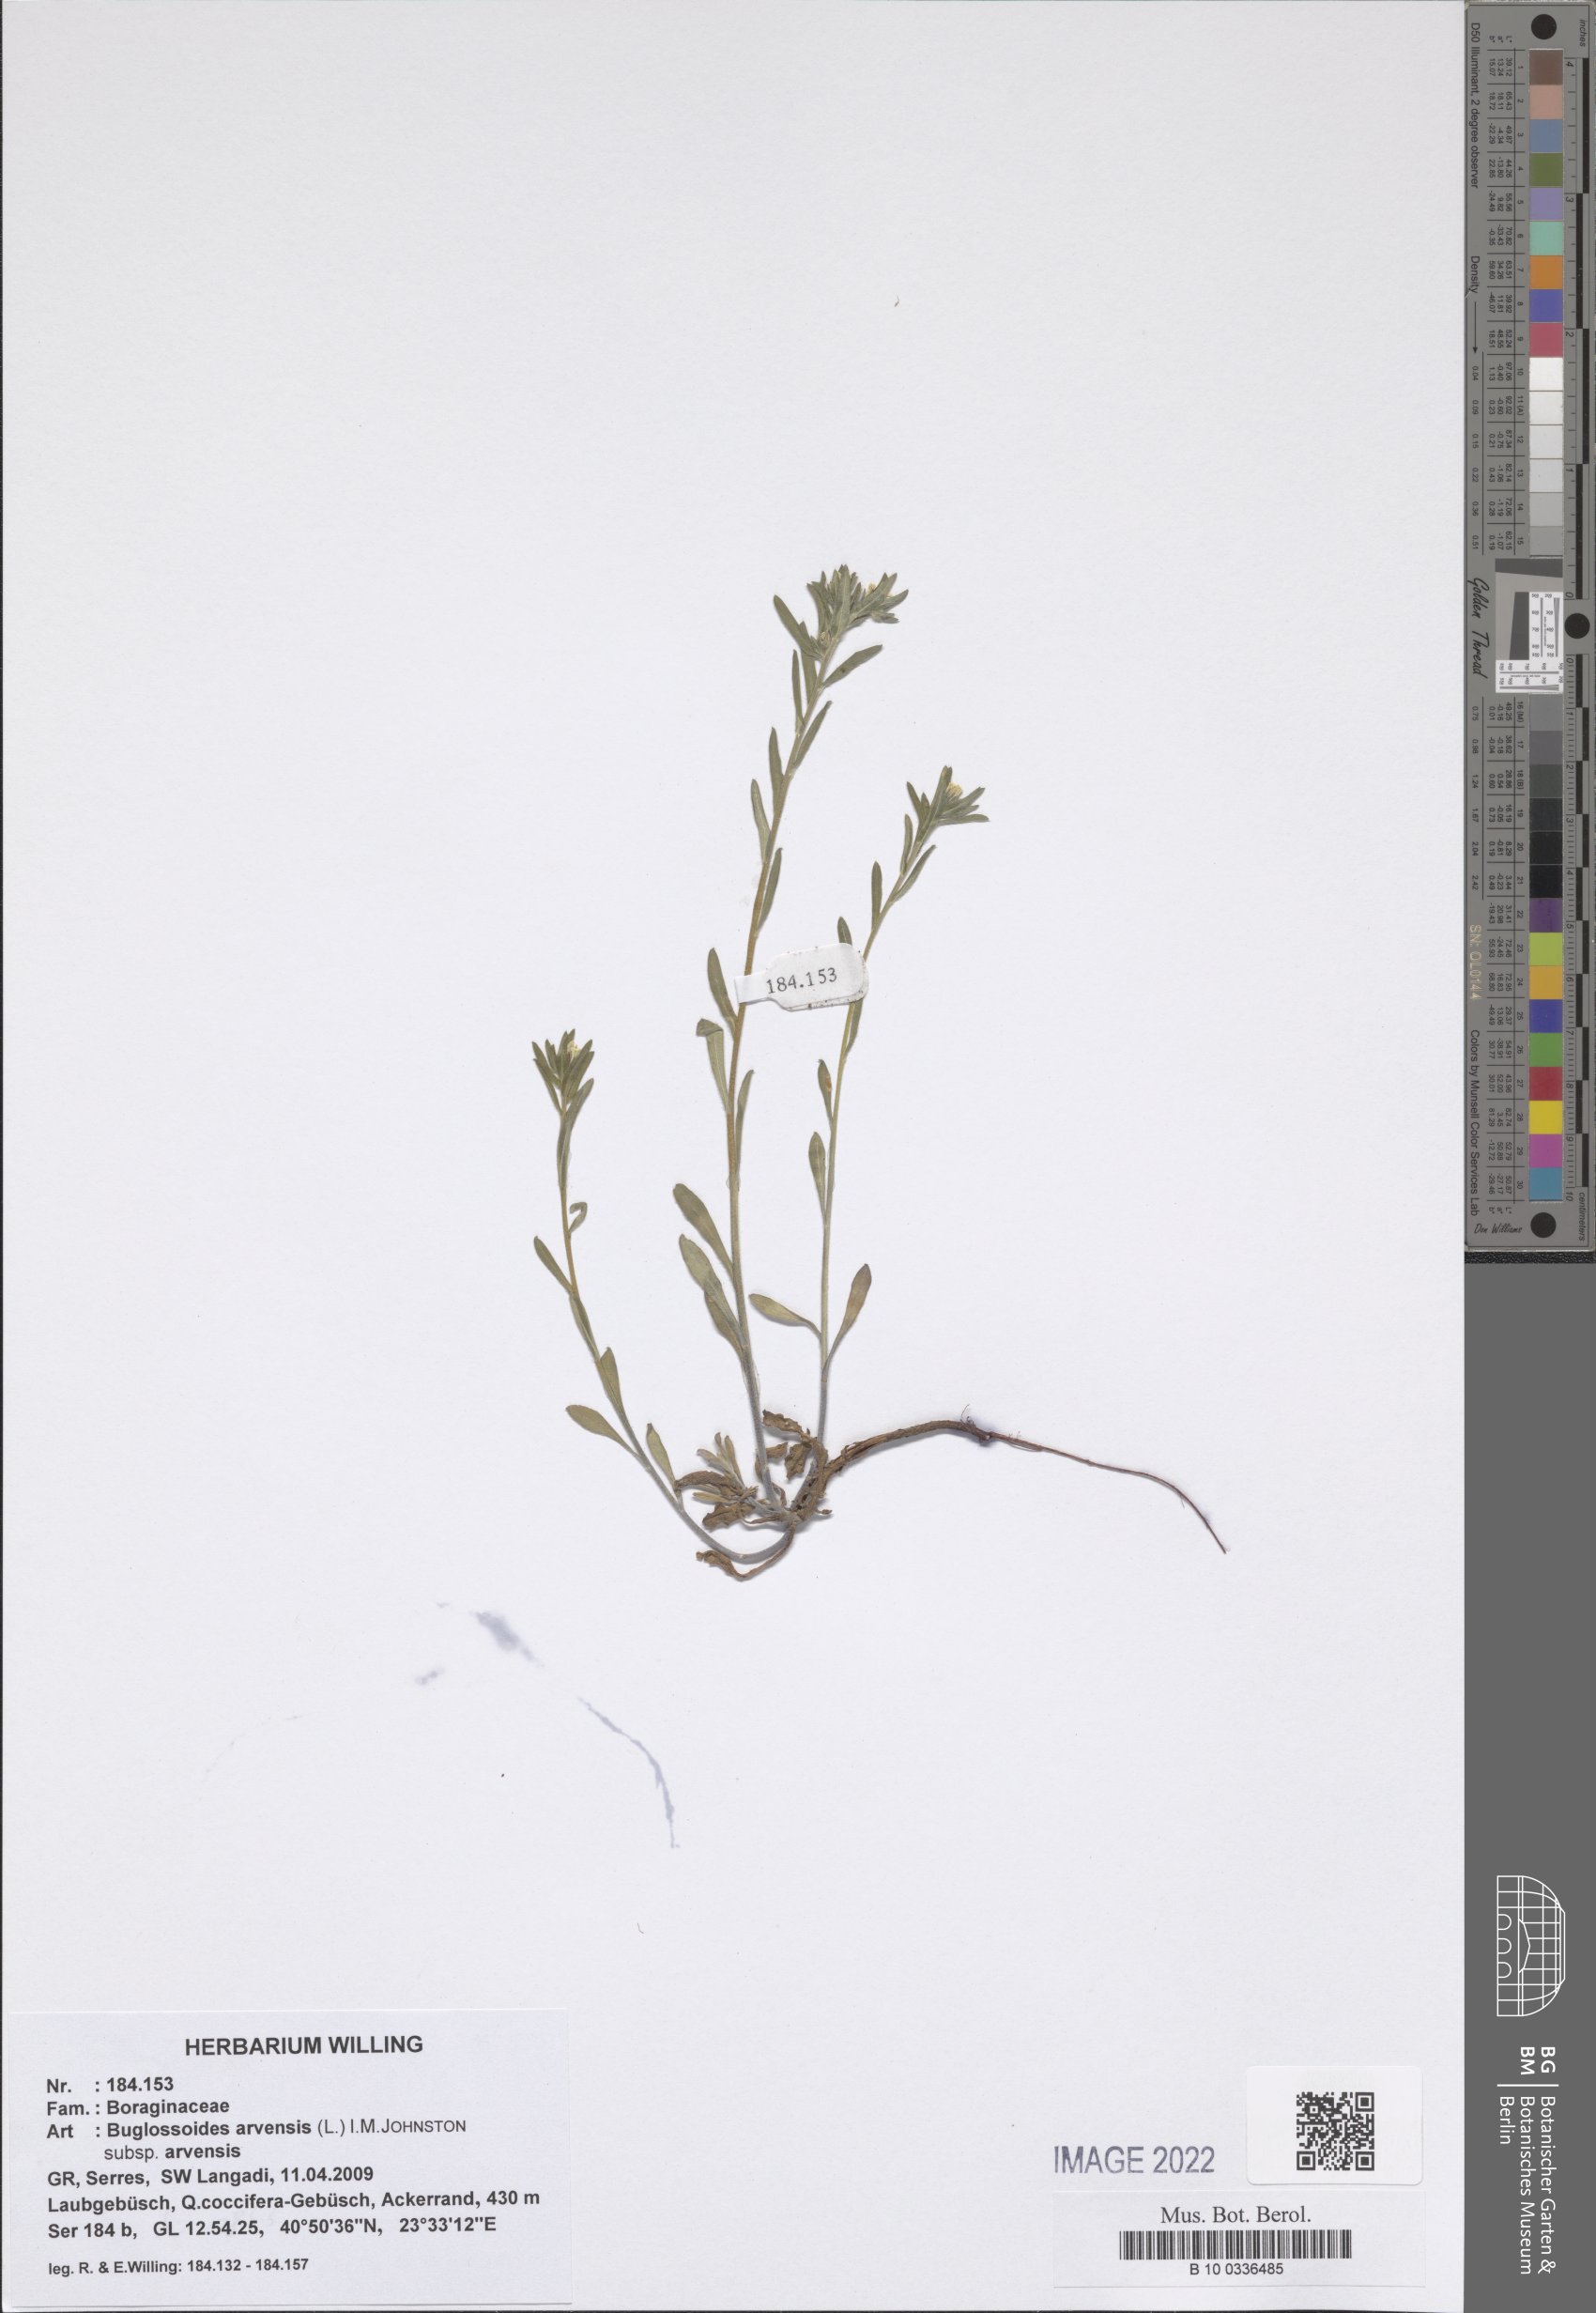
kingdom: Plantae
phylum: Tracheophyta
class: Magnoliopsida
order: Boraginales
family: Boraginaceae
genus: Buglossoides
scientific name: Buglossoides arvensis
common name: Corn gromwell
